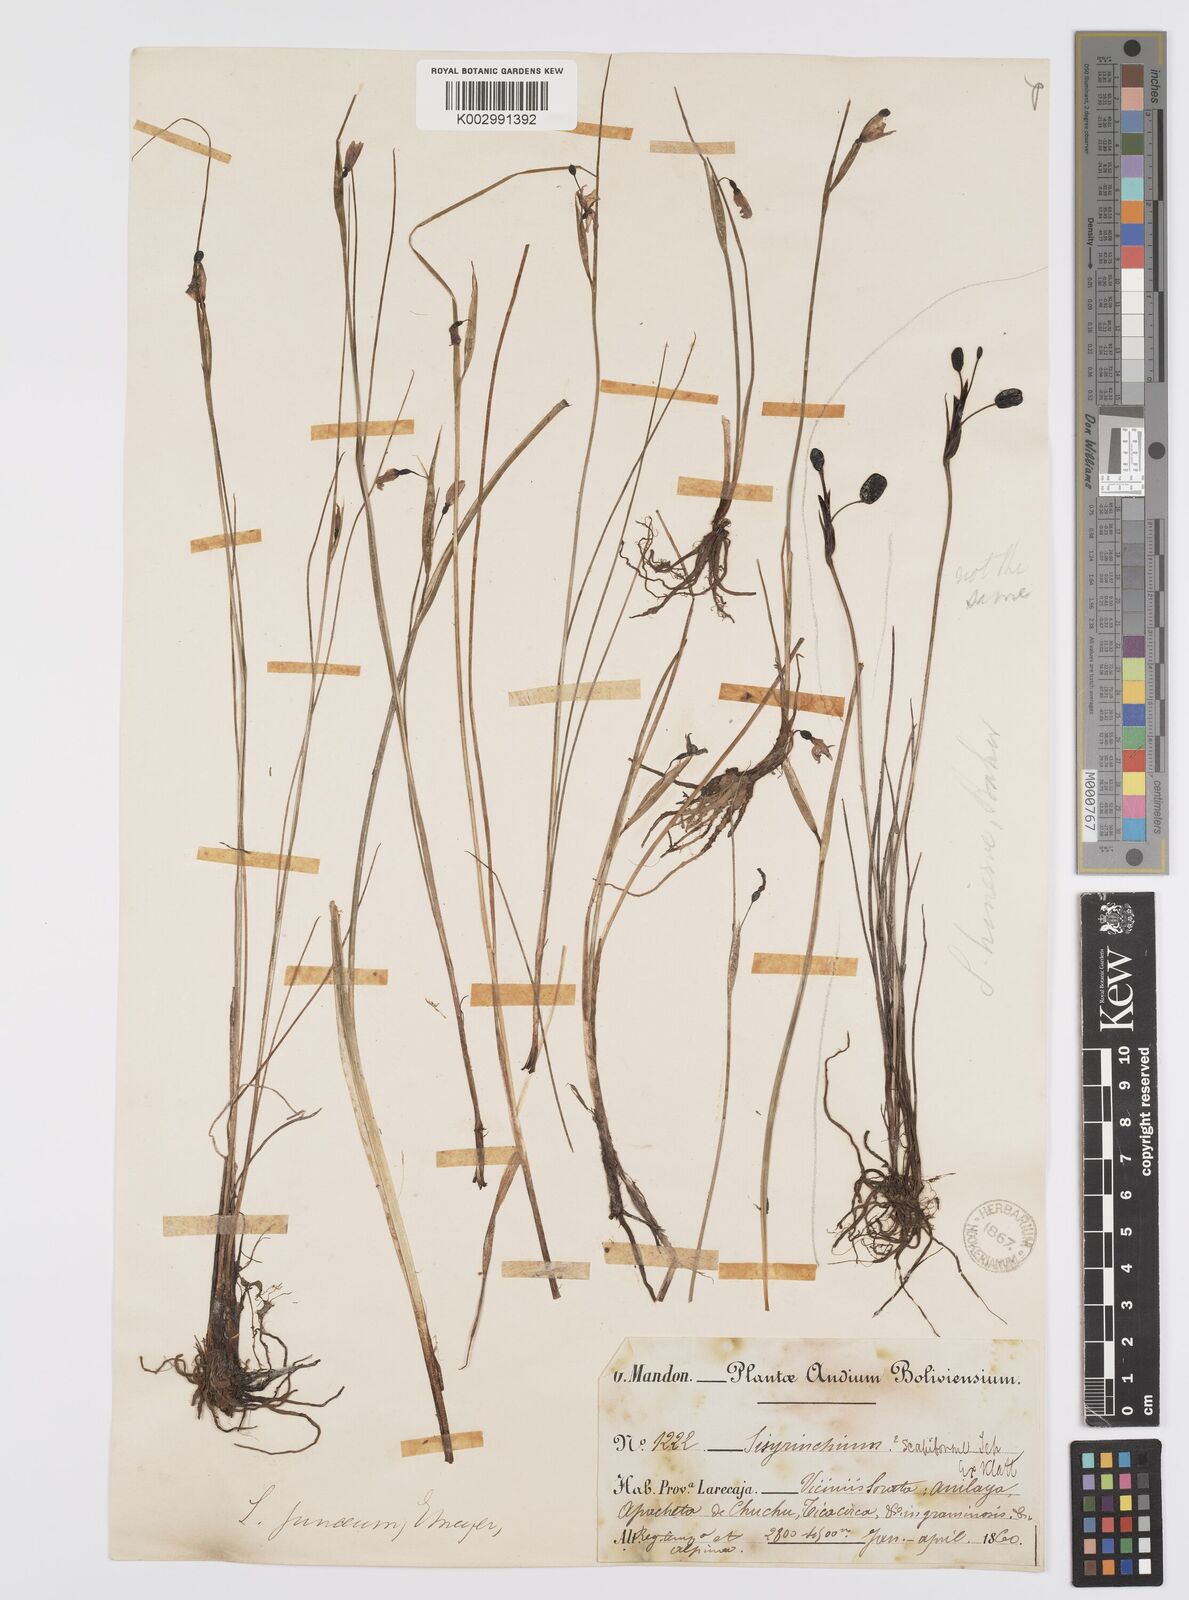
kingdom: Plantae
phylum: Tracheophyta
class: Liliopsida
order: Asparagales
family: Iridaceae
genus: Olsynium
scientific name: Olsynium junceum
